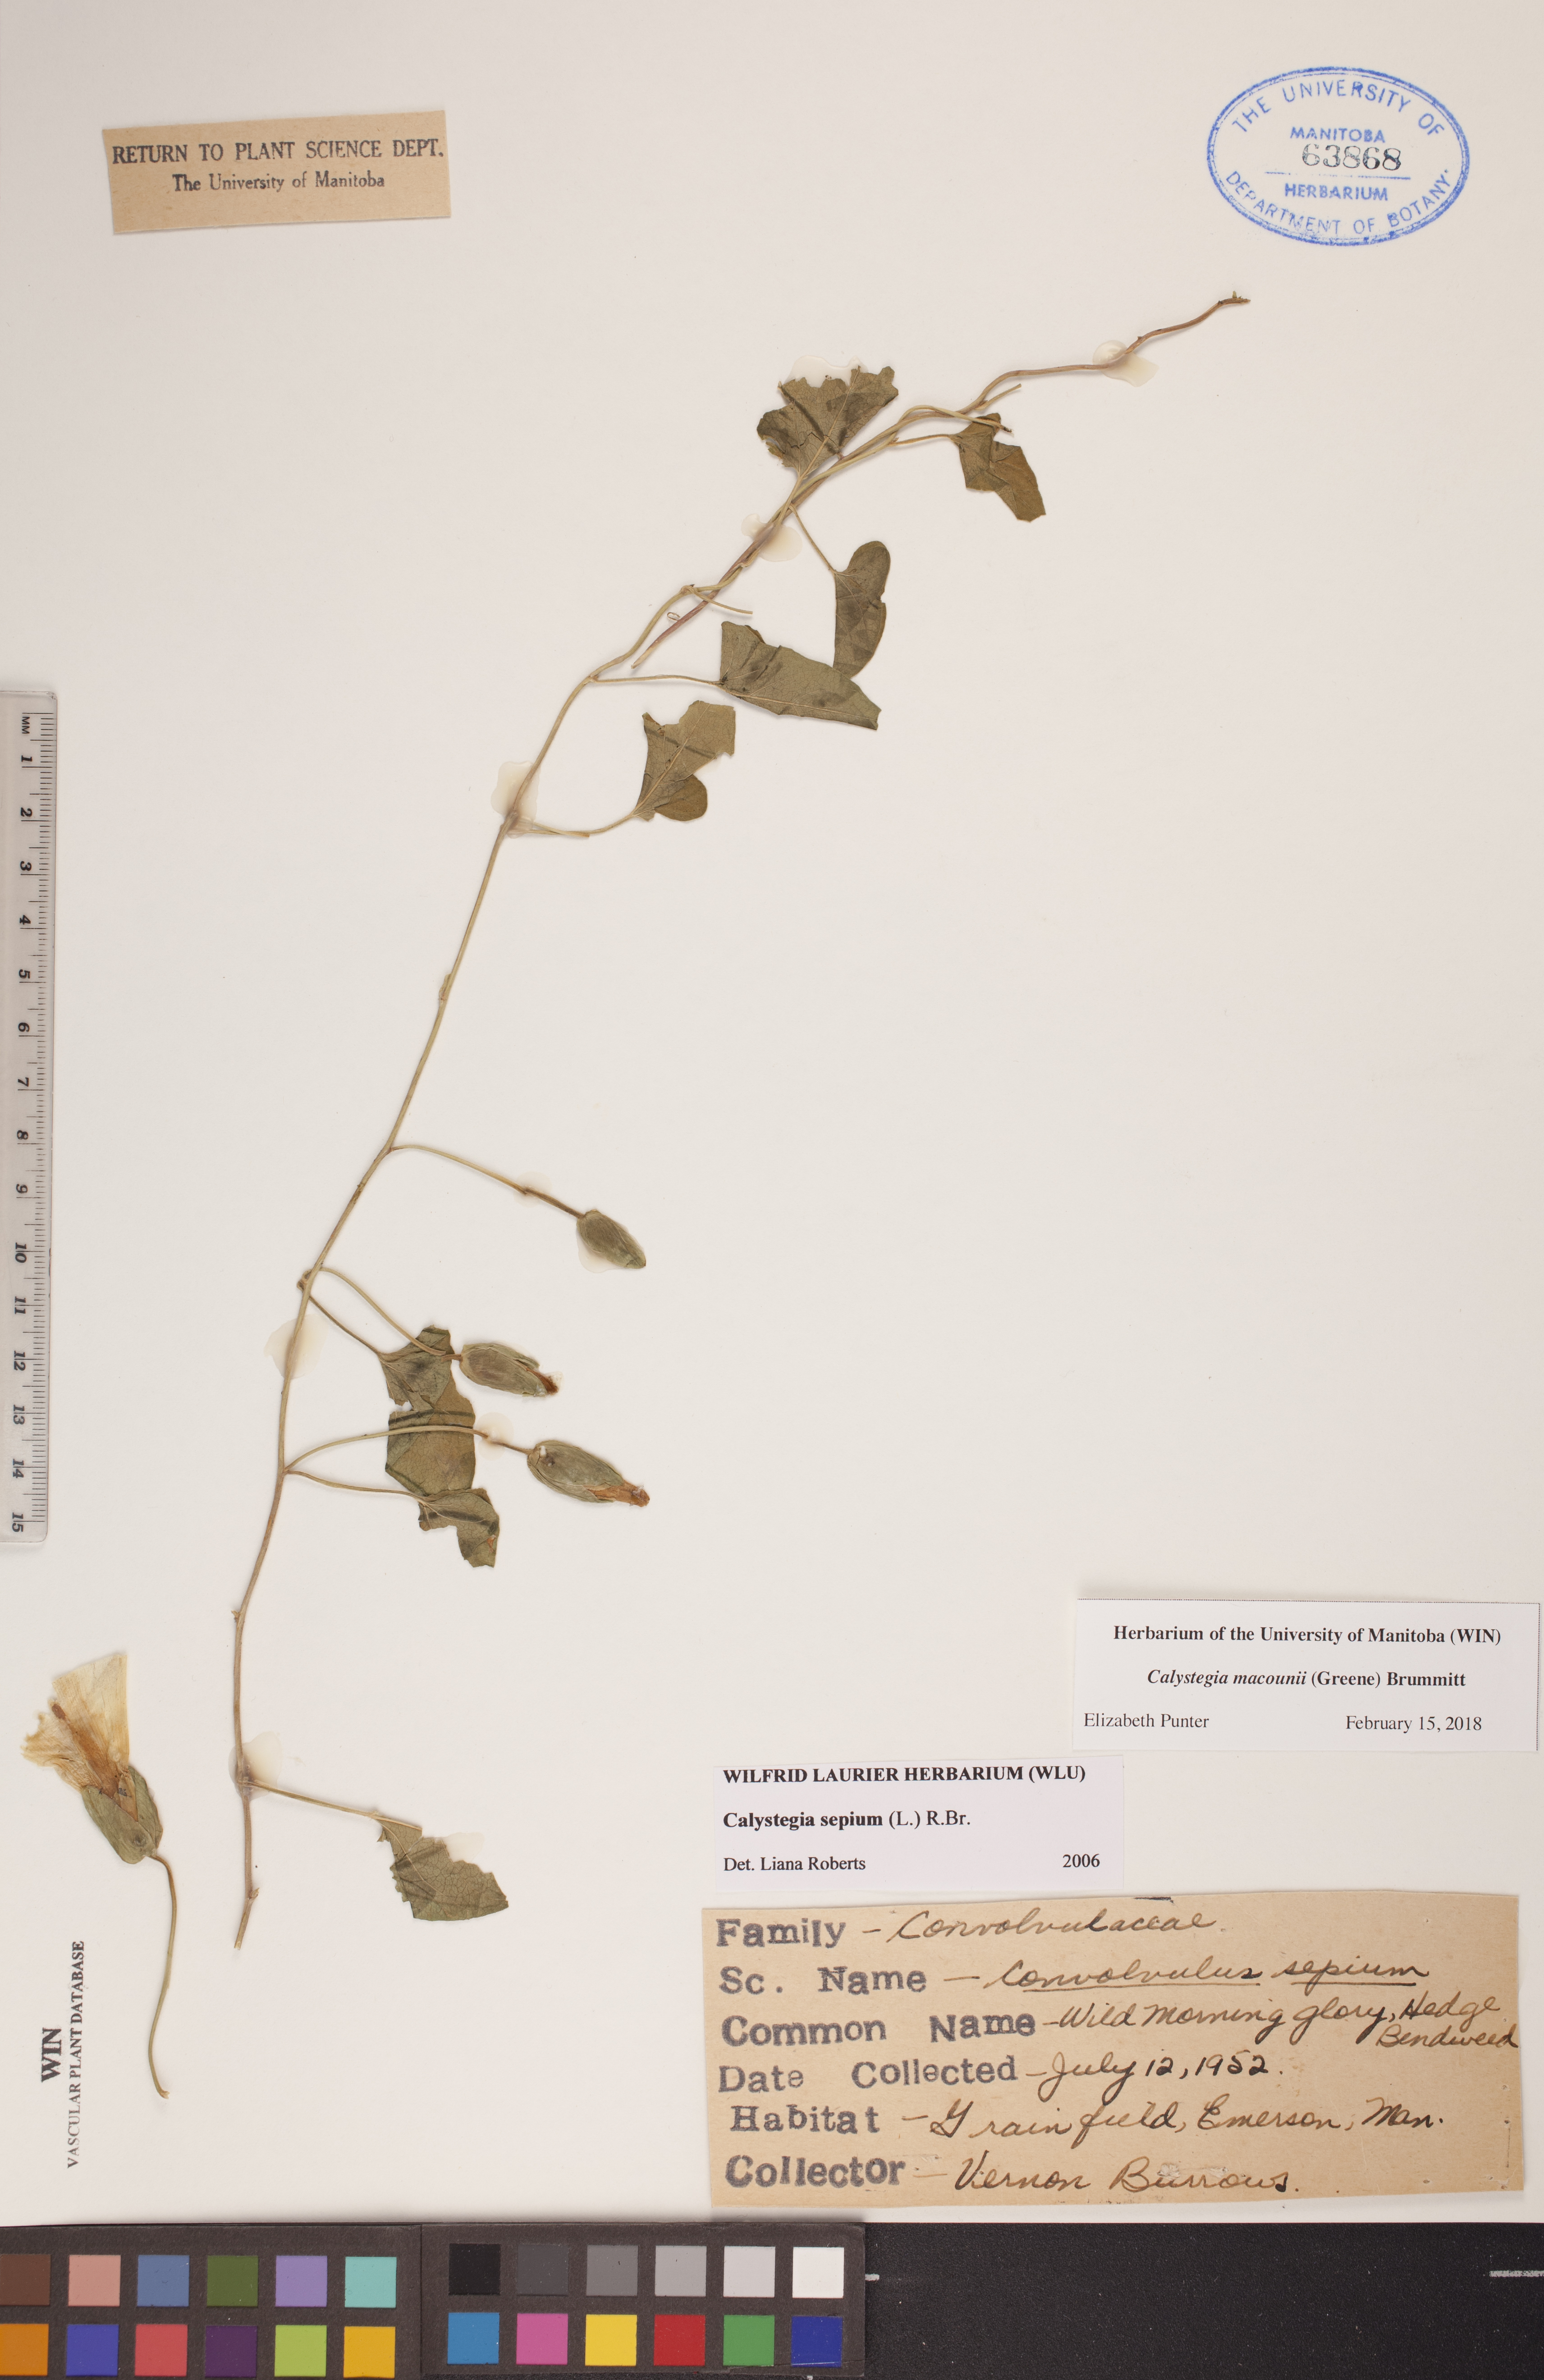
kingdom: Plantae
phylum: Tracheophyta
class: Magnoliopsida
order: Solanales
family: Convolvulaceae
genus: Calystegia
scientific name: Calystegia macounii
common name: Macoun's bindweed
